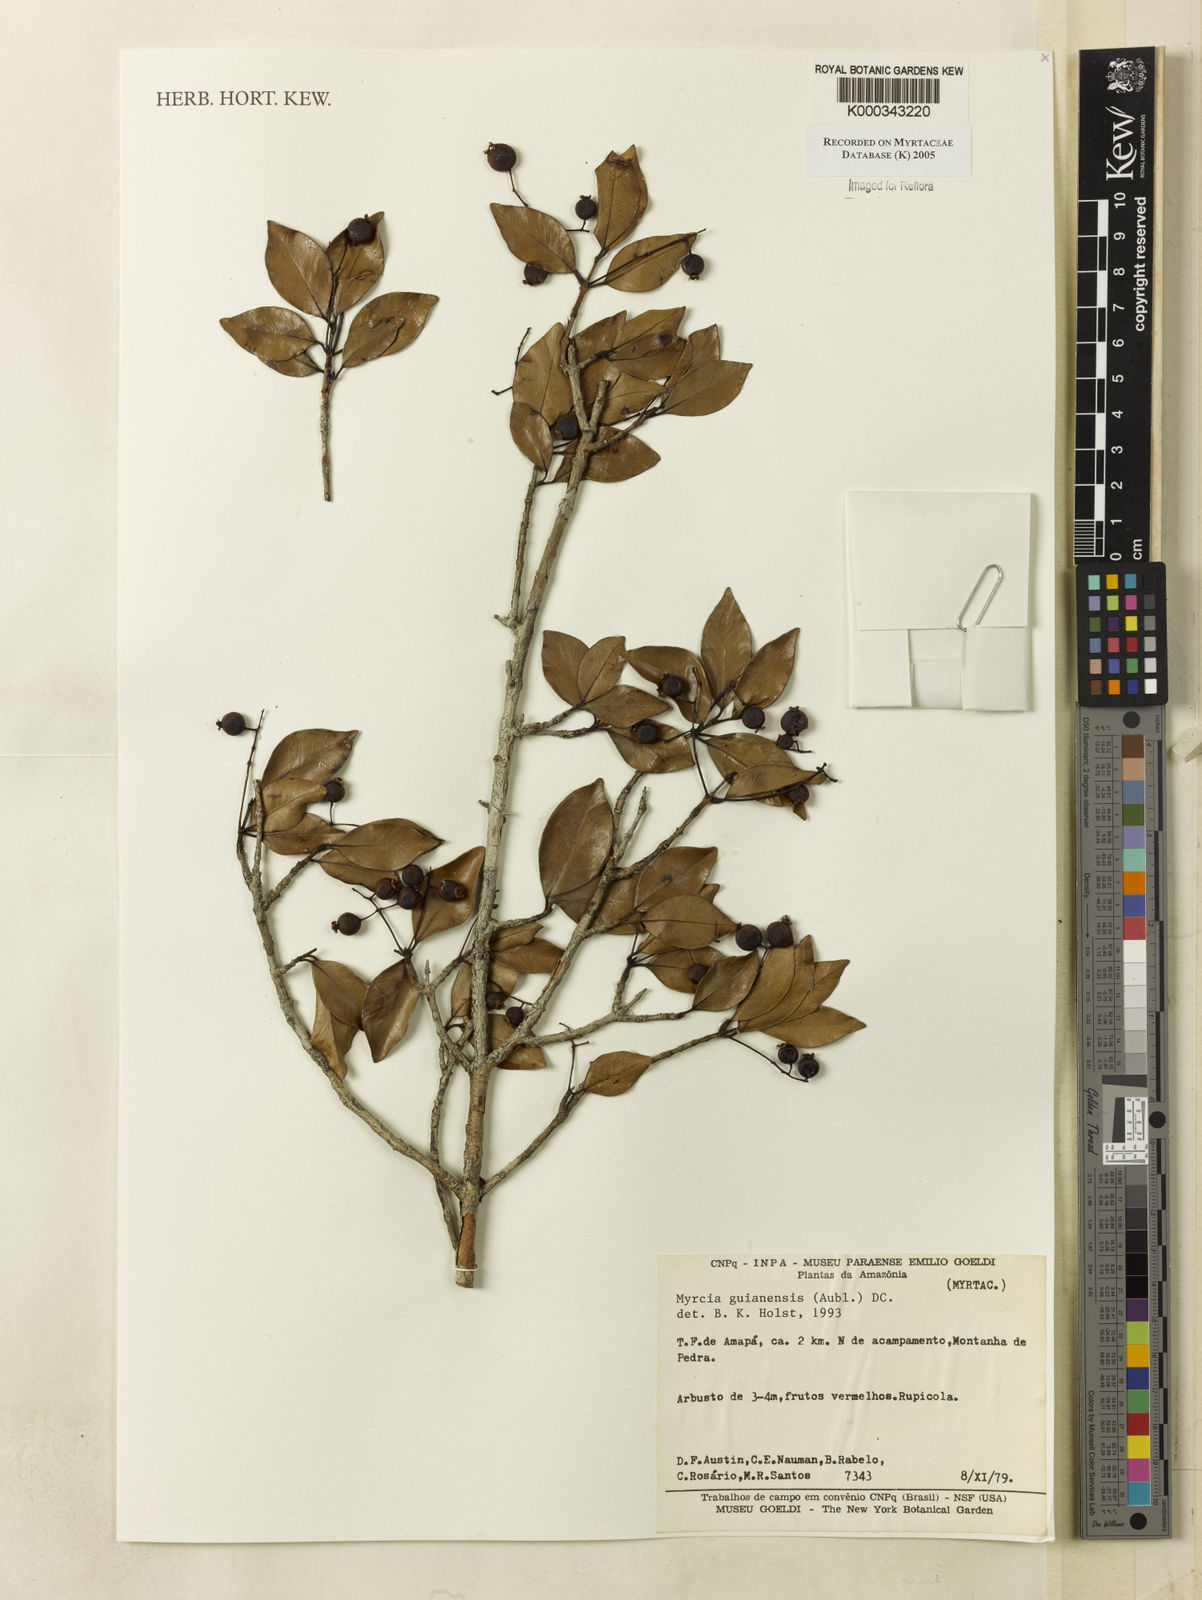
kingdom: Plantae
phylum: Tracheophyta
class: Magnoliopsida
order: Myrtales
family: Myrtaceae
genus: Myrcia
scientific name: Myrcia guianensis
